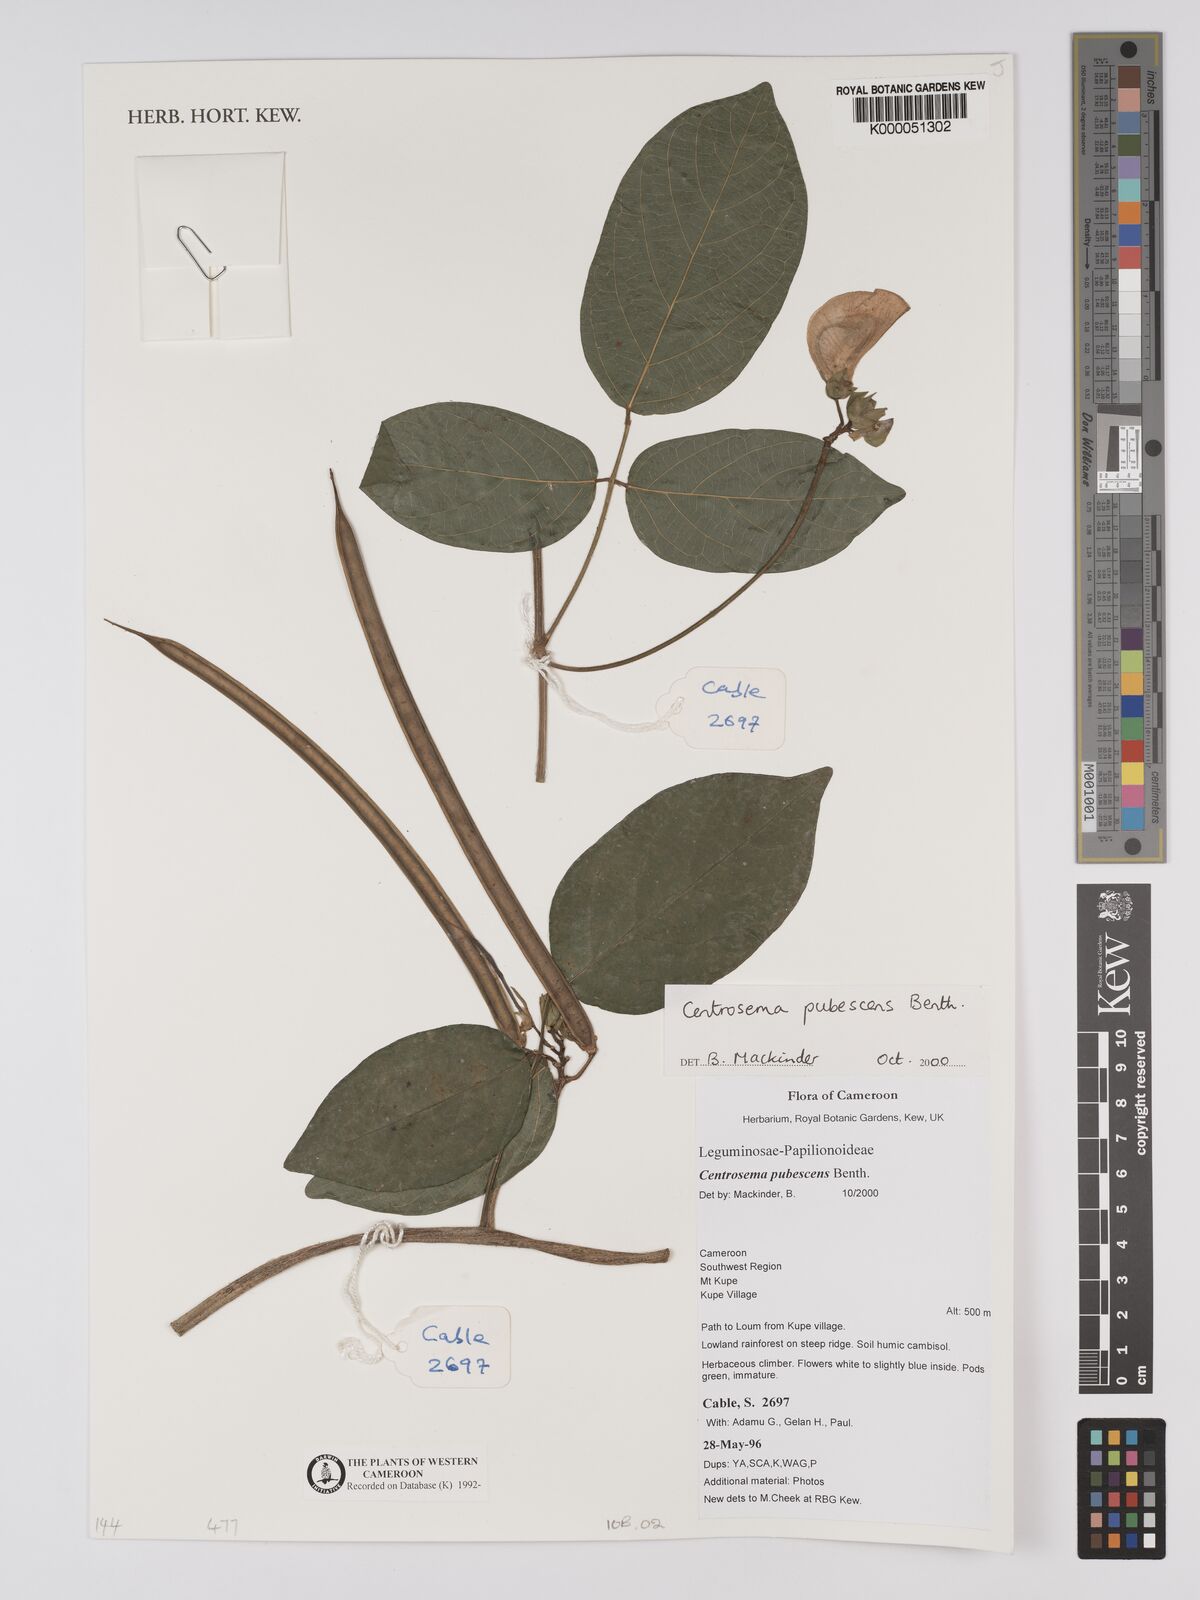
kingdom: Plantae
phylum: Tracheophyta
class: Magnoliopsida
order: Fabales
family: Fabaceae
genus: Centrosema
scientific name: Centrosema pubescens
